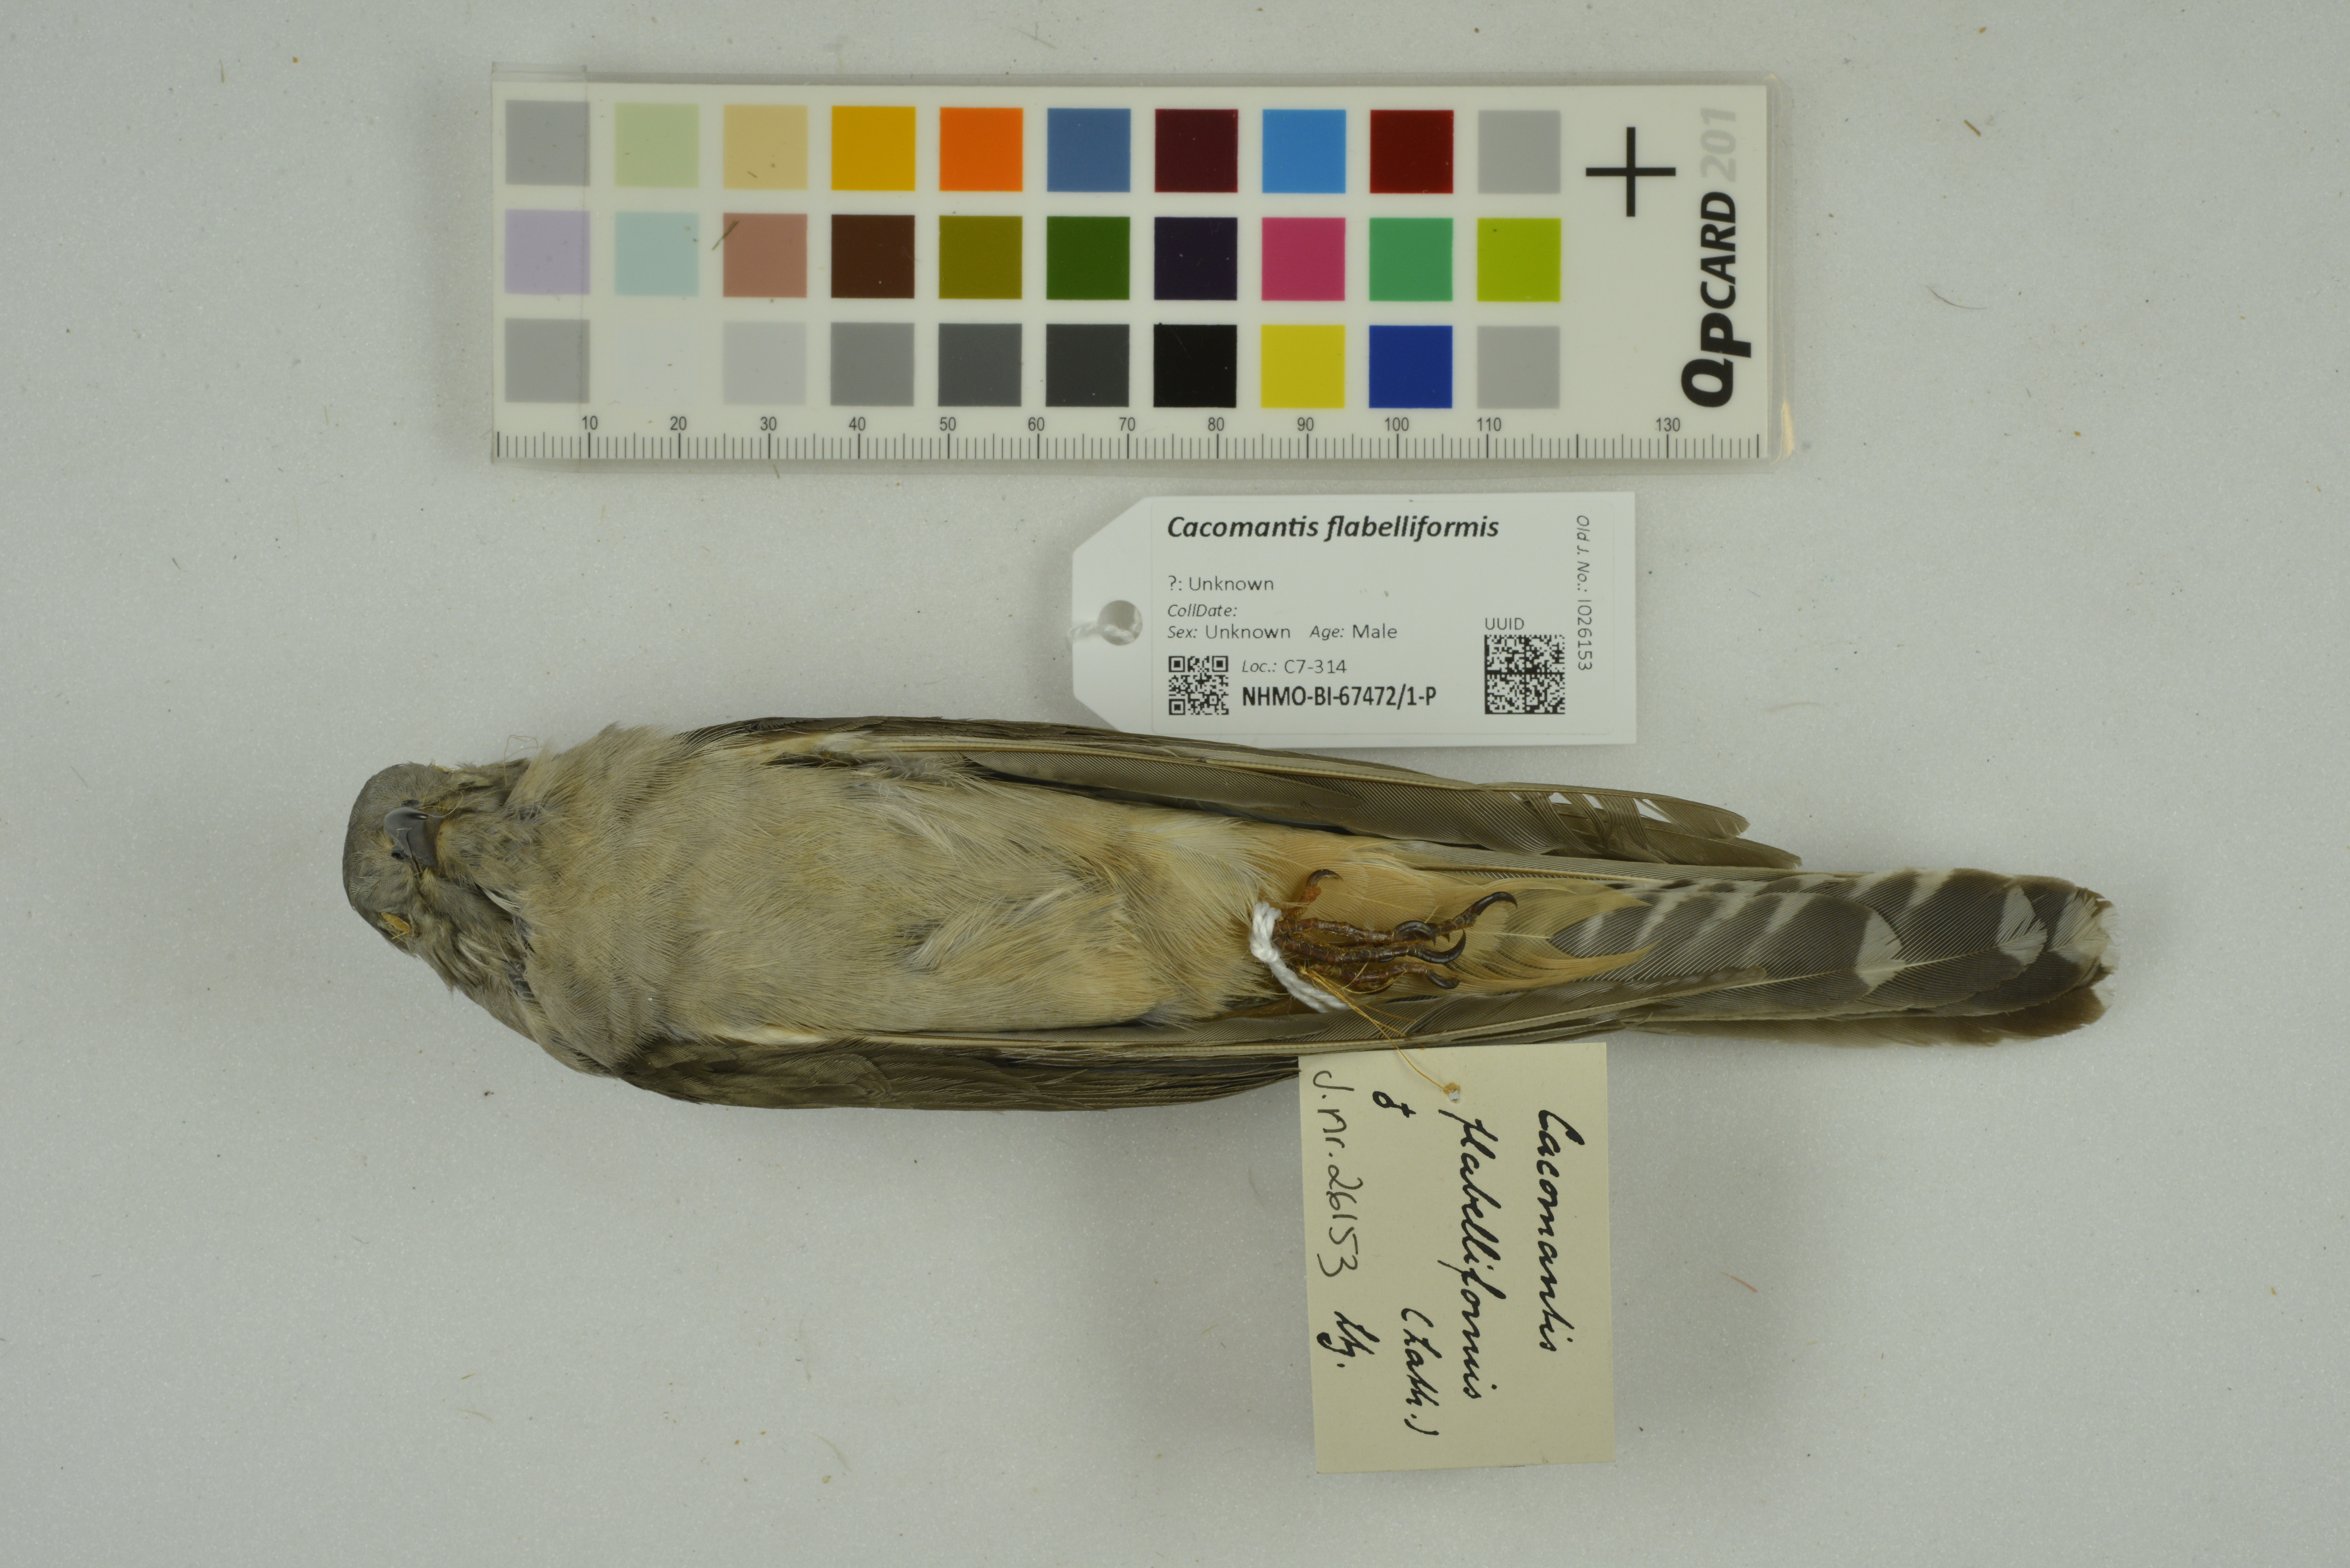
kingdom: Animalia
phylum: Chordata
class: Aves
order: Cuculiformes
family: Cuculidae
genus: Cacomantis
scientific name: Cacomantis flabelliformis
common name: Fan-tailed cuckoo
